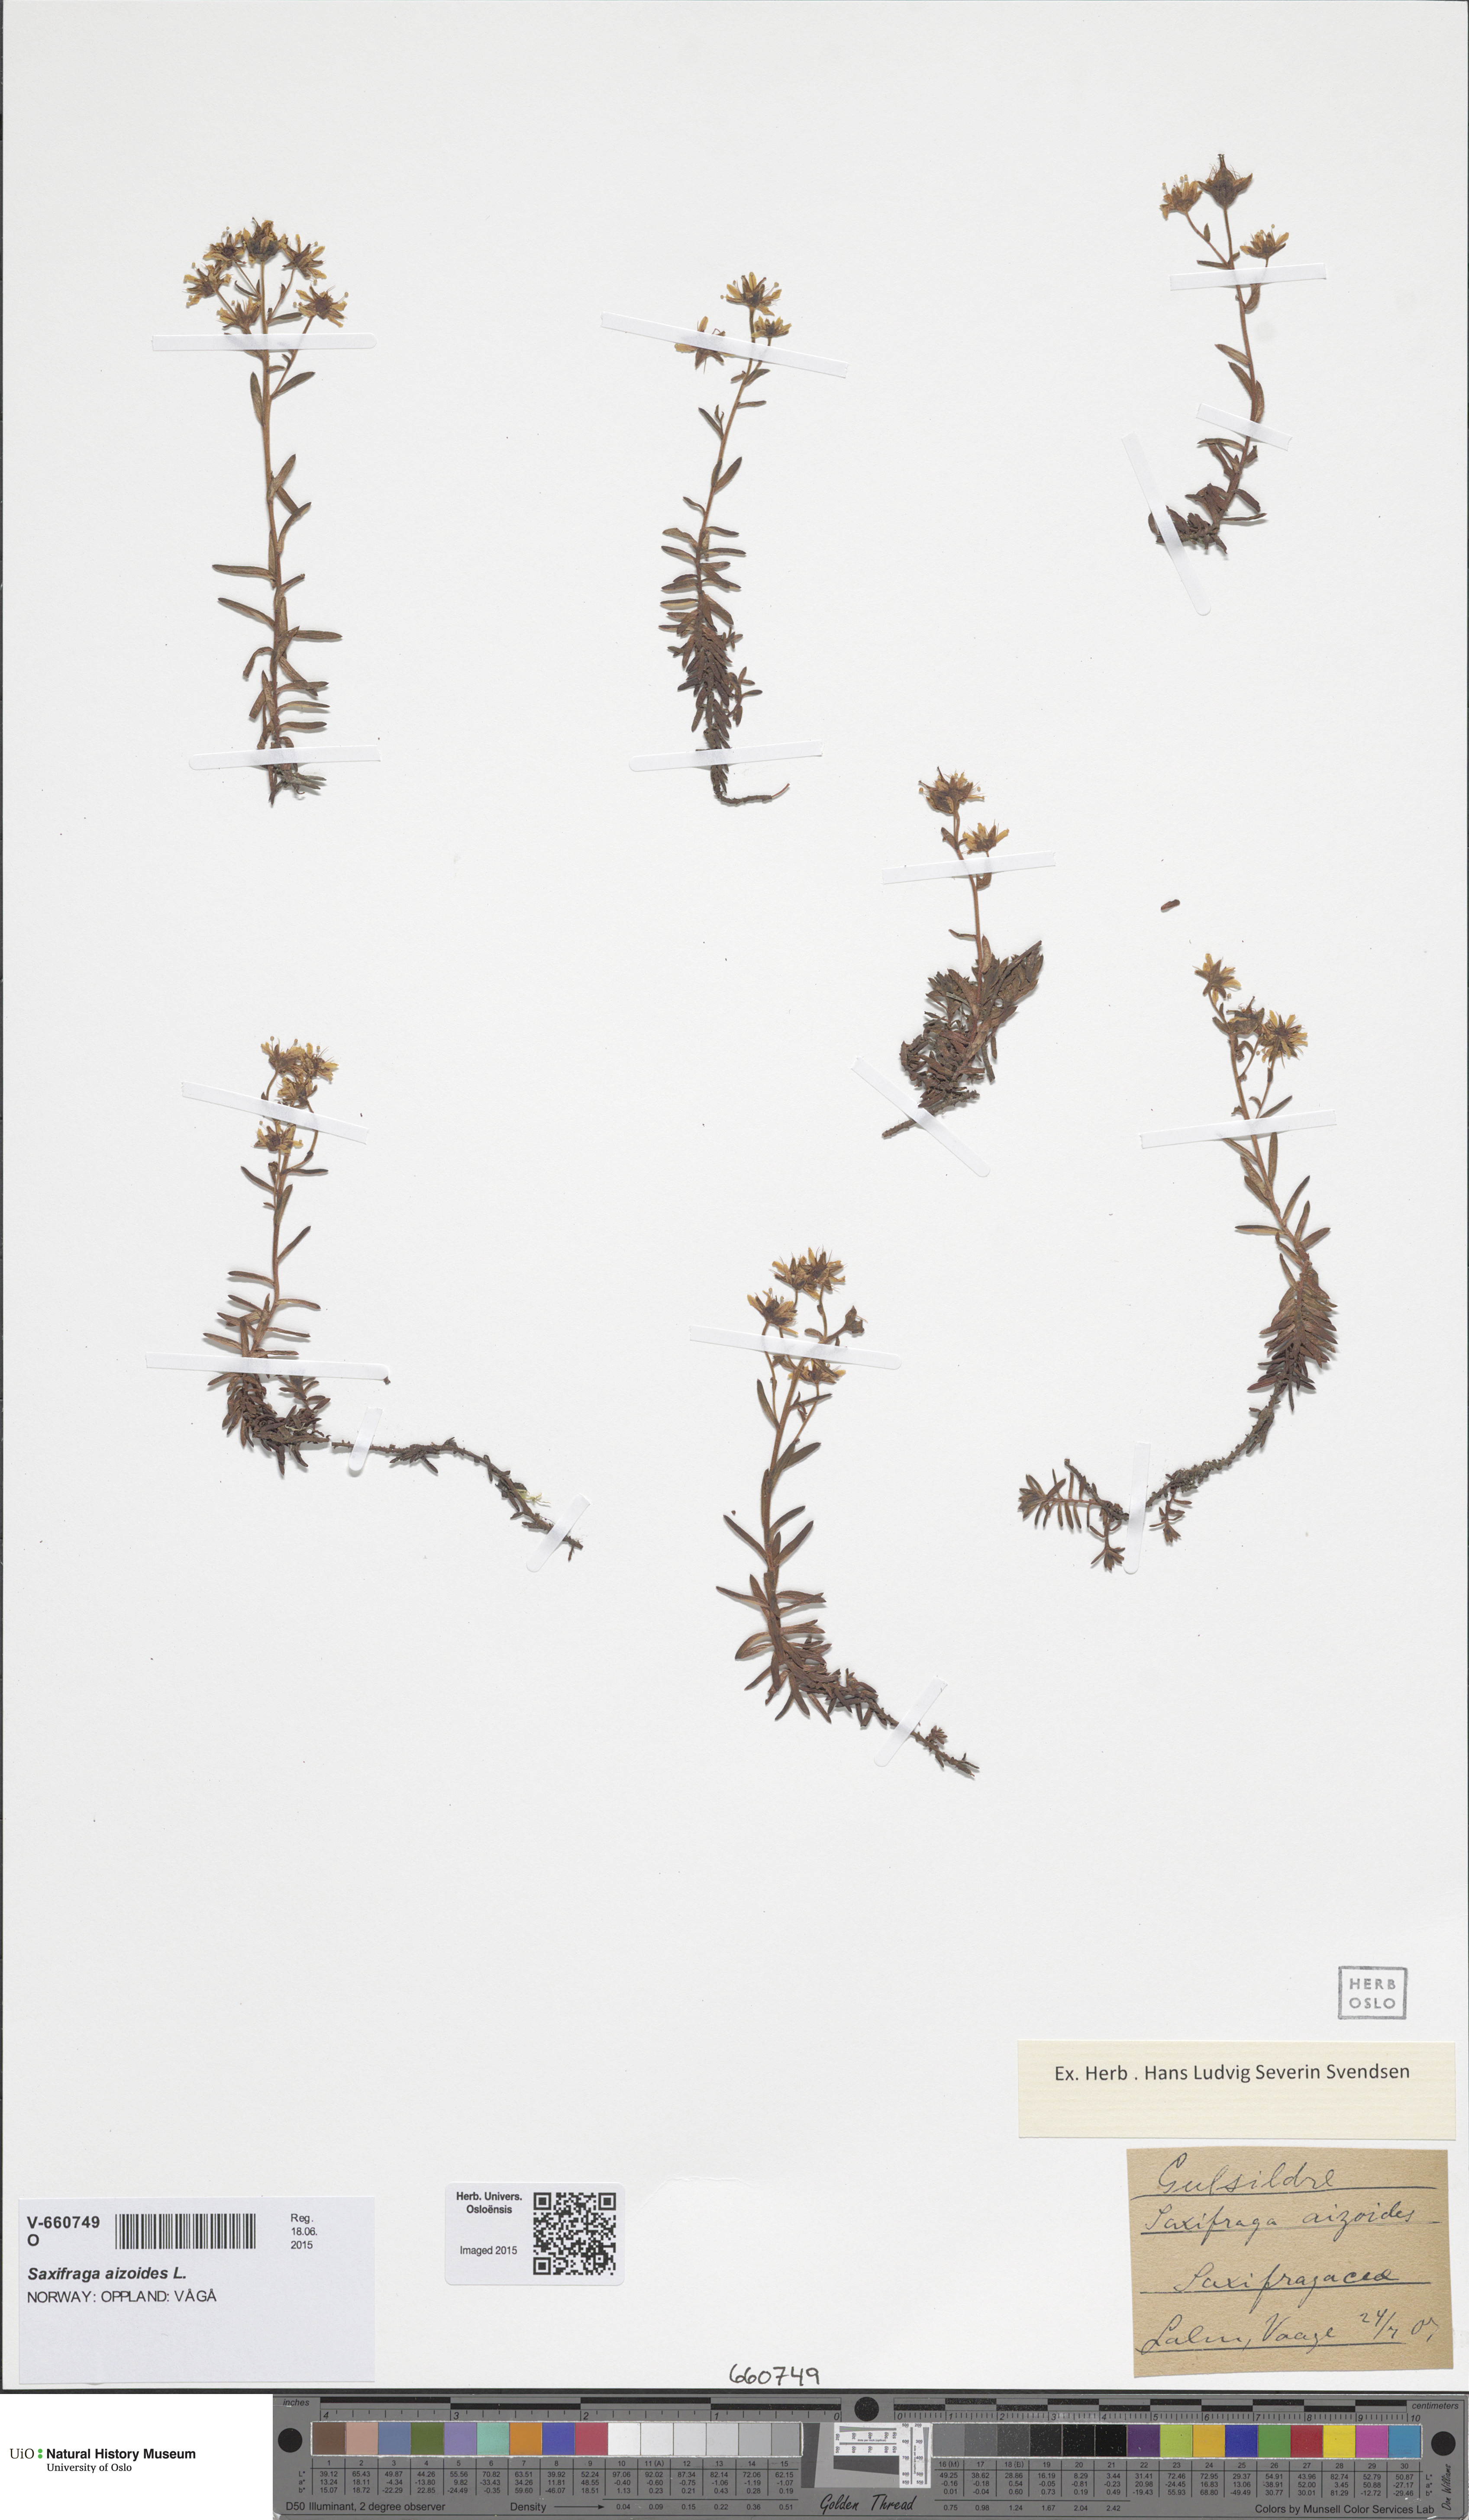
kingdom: Plantae
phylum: Tracheophyta
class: Magnoliopsida
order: Saxifragales
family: Saxifragaceae
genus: Saxifraga
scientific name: Saxifraga aizoides
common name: Yellow mountain saxifrage
